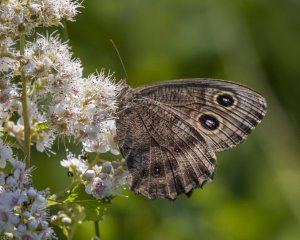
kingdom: Animalia
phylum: Arthropoda
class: Insecta
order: Lepidoptera
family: Nymphalidae
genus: Cercyonis
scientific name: Cercyonis pegala
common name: Common Wood-Nymph
